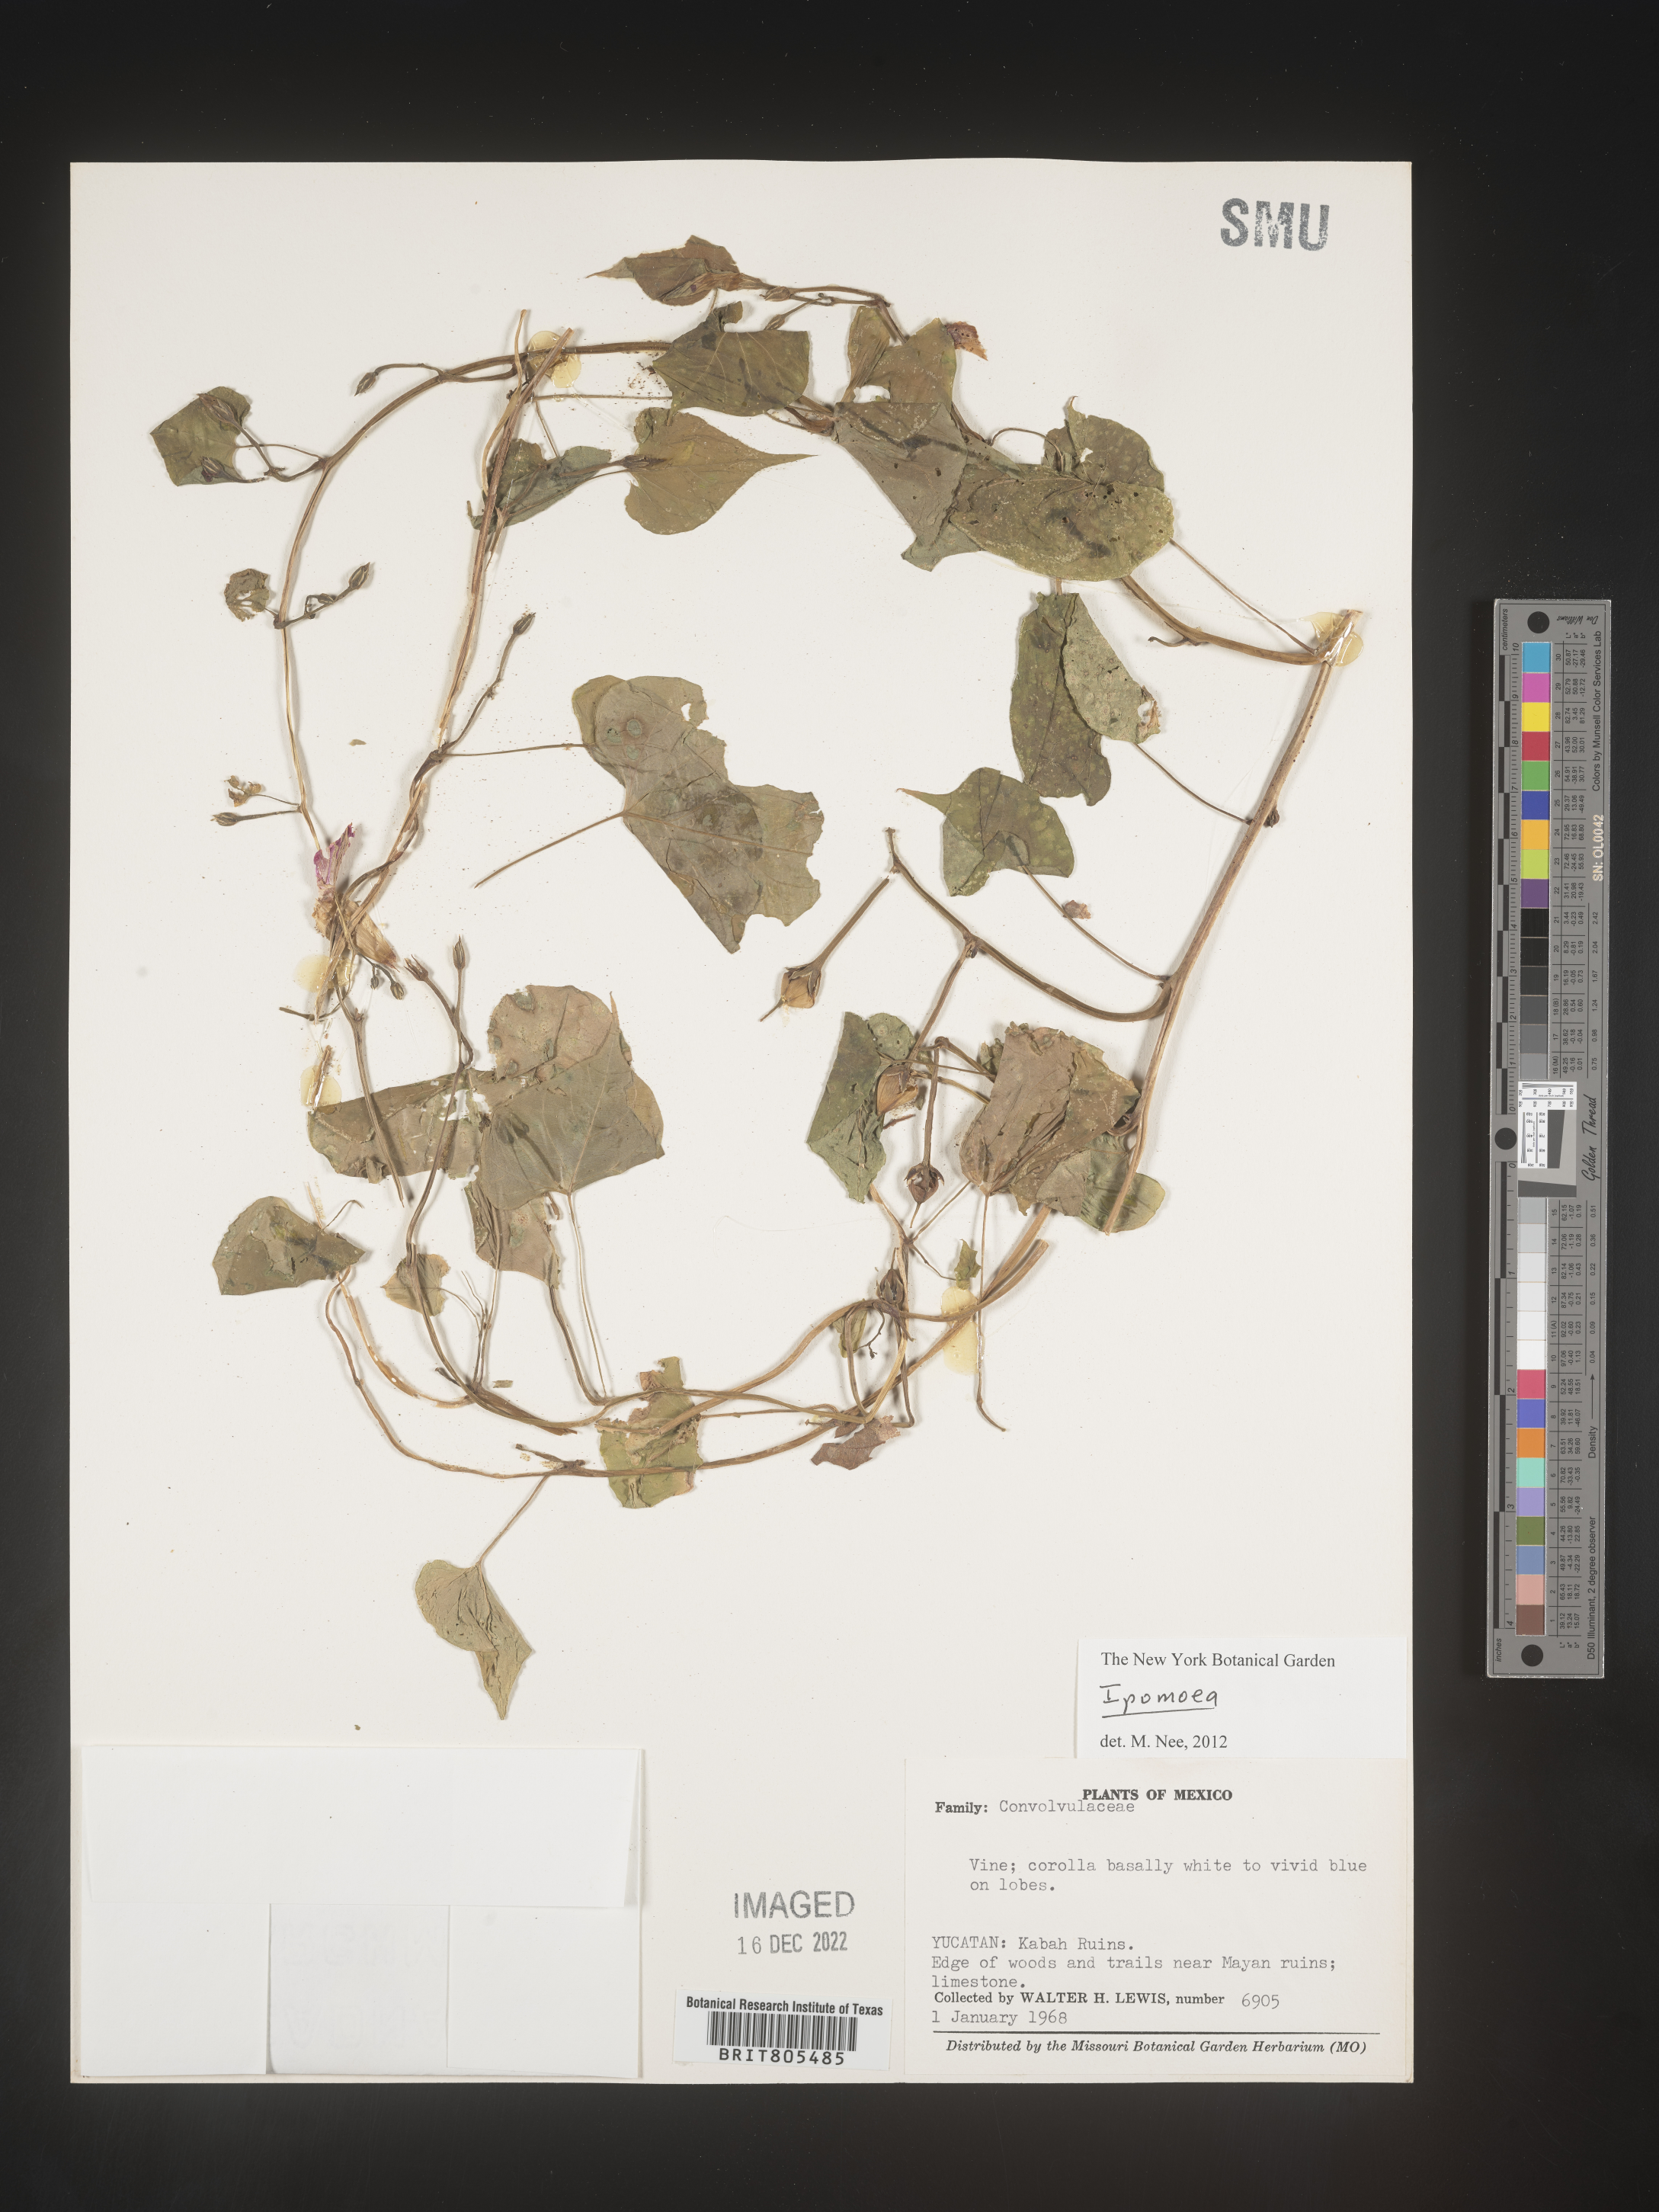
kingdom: Plantae
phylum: Tracheophyta
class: Magnoliopsida
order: Solanales
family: Convolvulaceae
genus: Ipomoea
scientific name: Ipomoea
